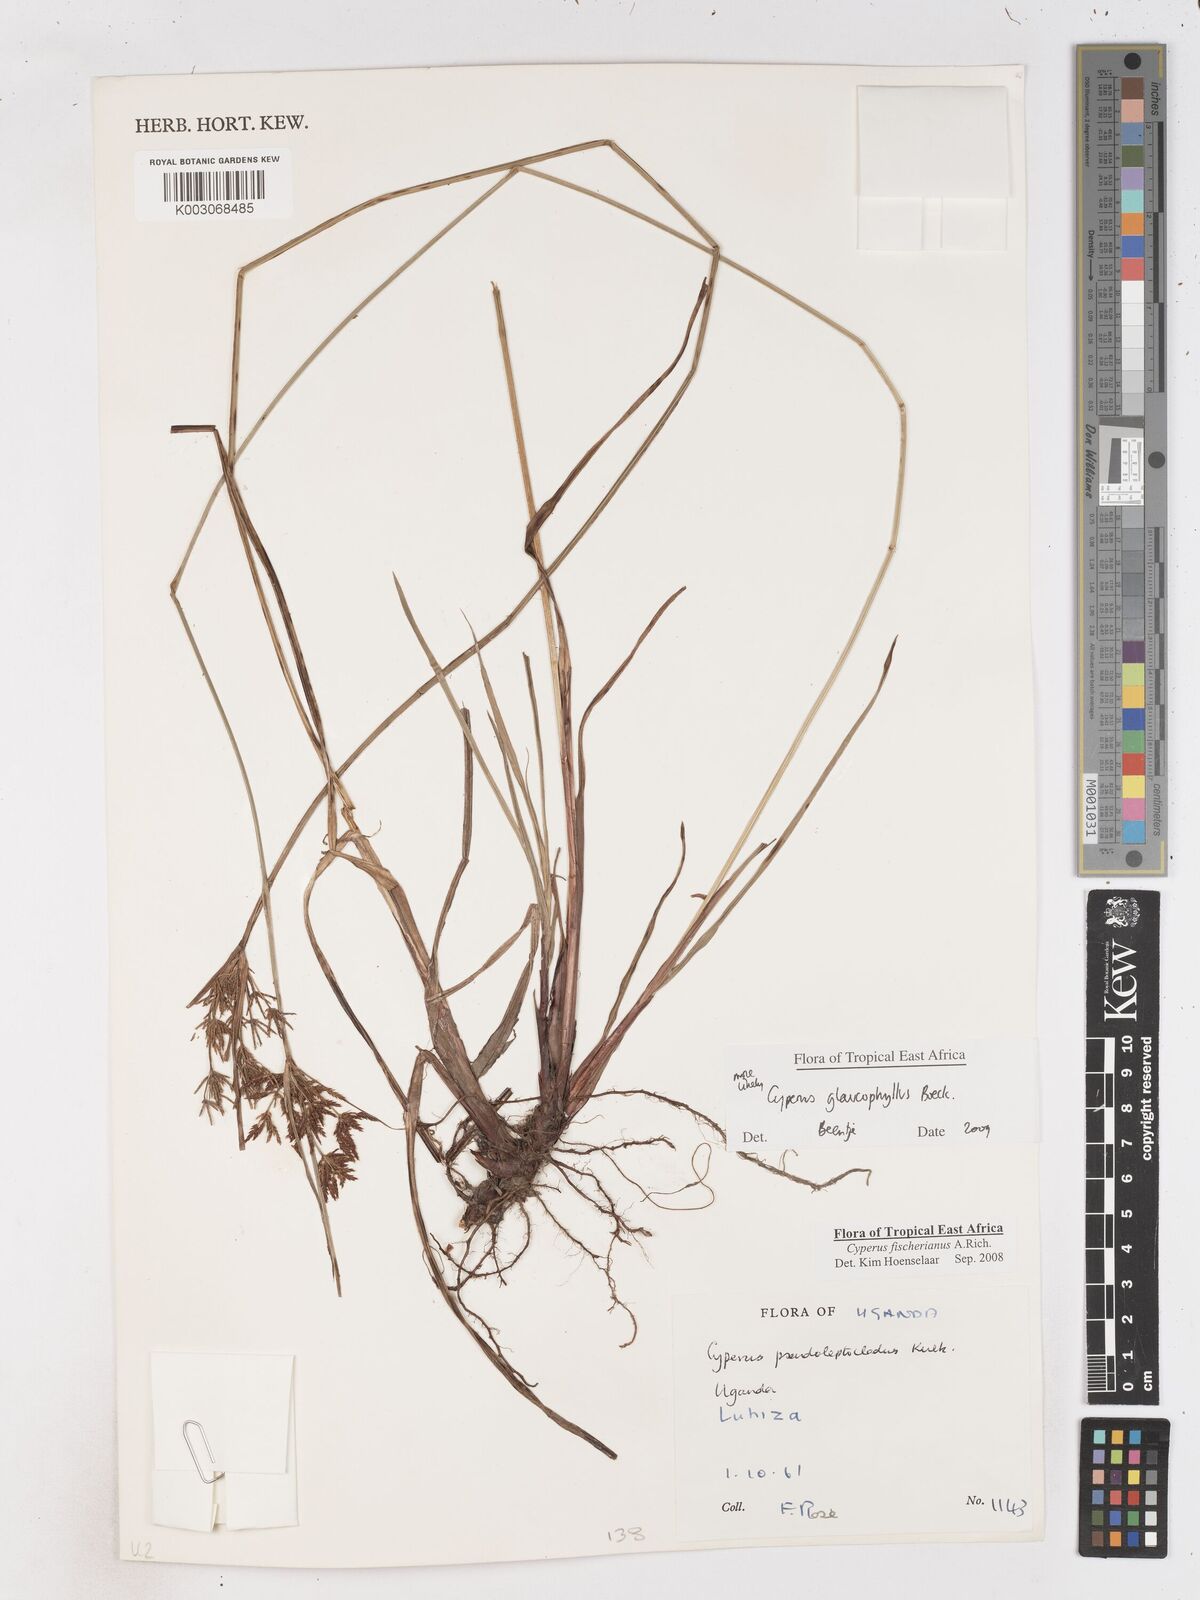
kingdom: Plantae
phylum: Tracheophyta
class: Liliopsida
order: Poales
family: Cyperaceae
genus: Cyperus
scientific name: Cyperus glaucophyllus
